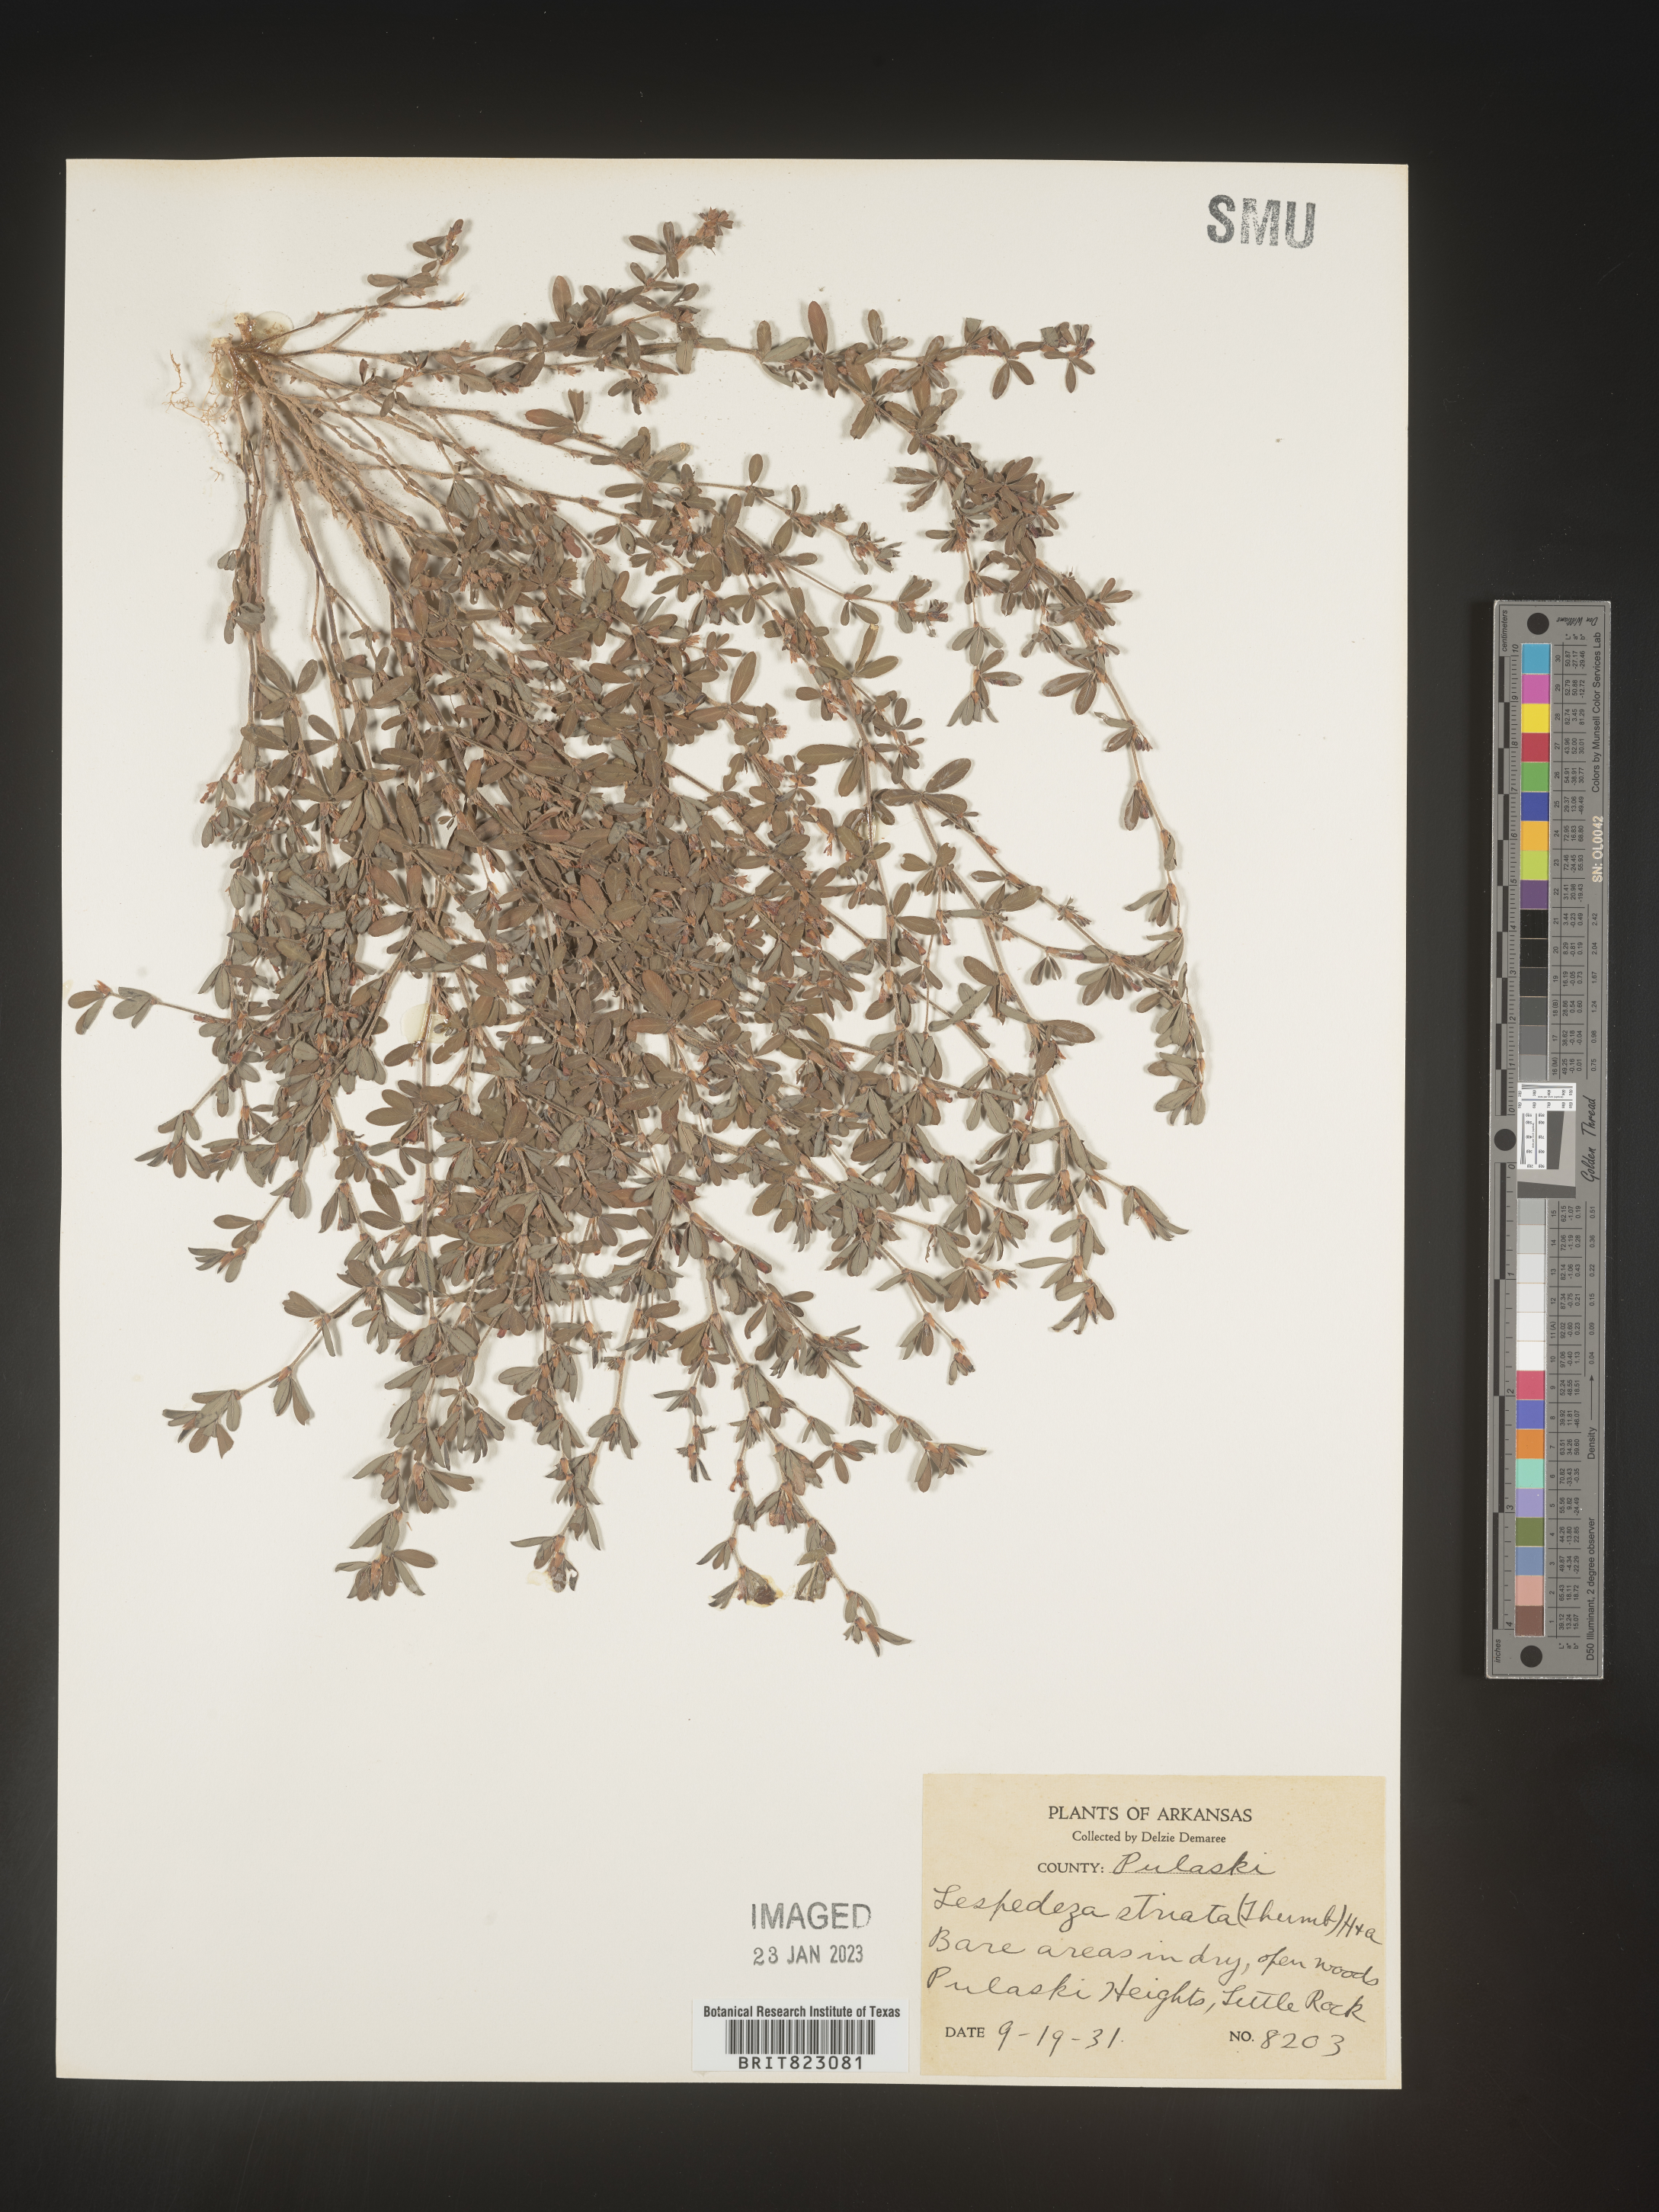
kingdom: Plantae
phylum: Tracheophyta
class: Magnoliopsida
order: Fabales
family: Fabaceae
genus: Kummerowia
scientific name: Kummerowia striata
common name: Japanese clover
